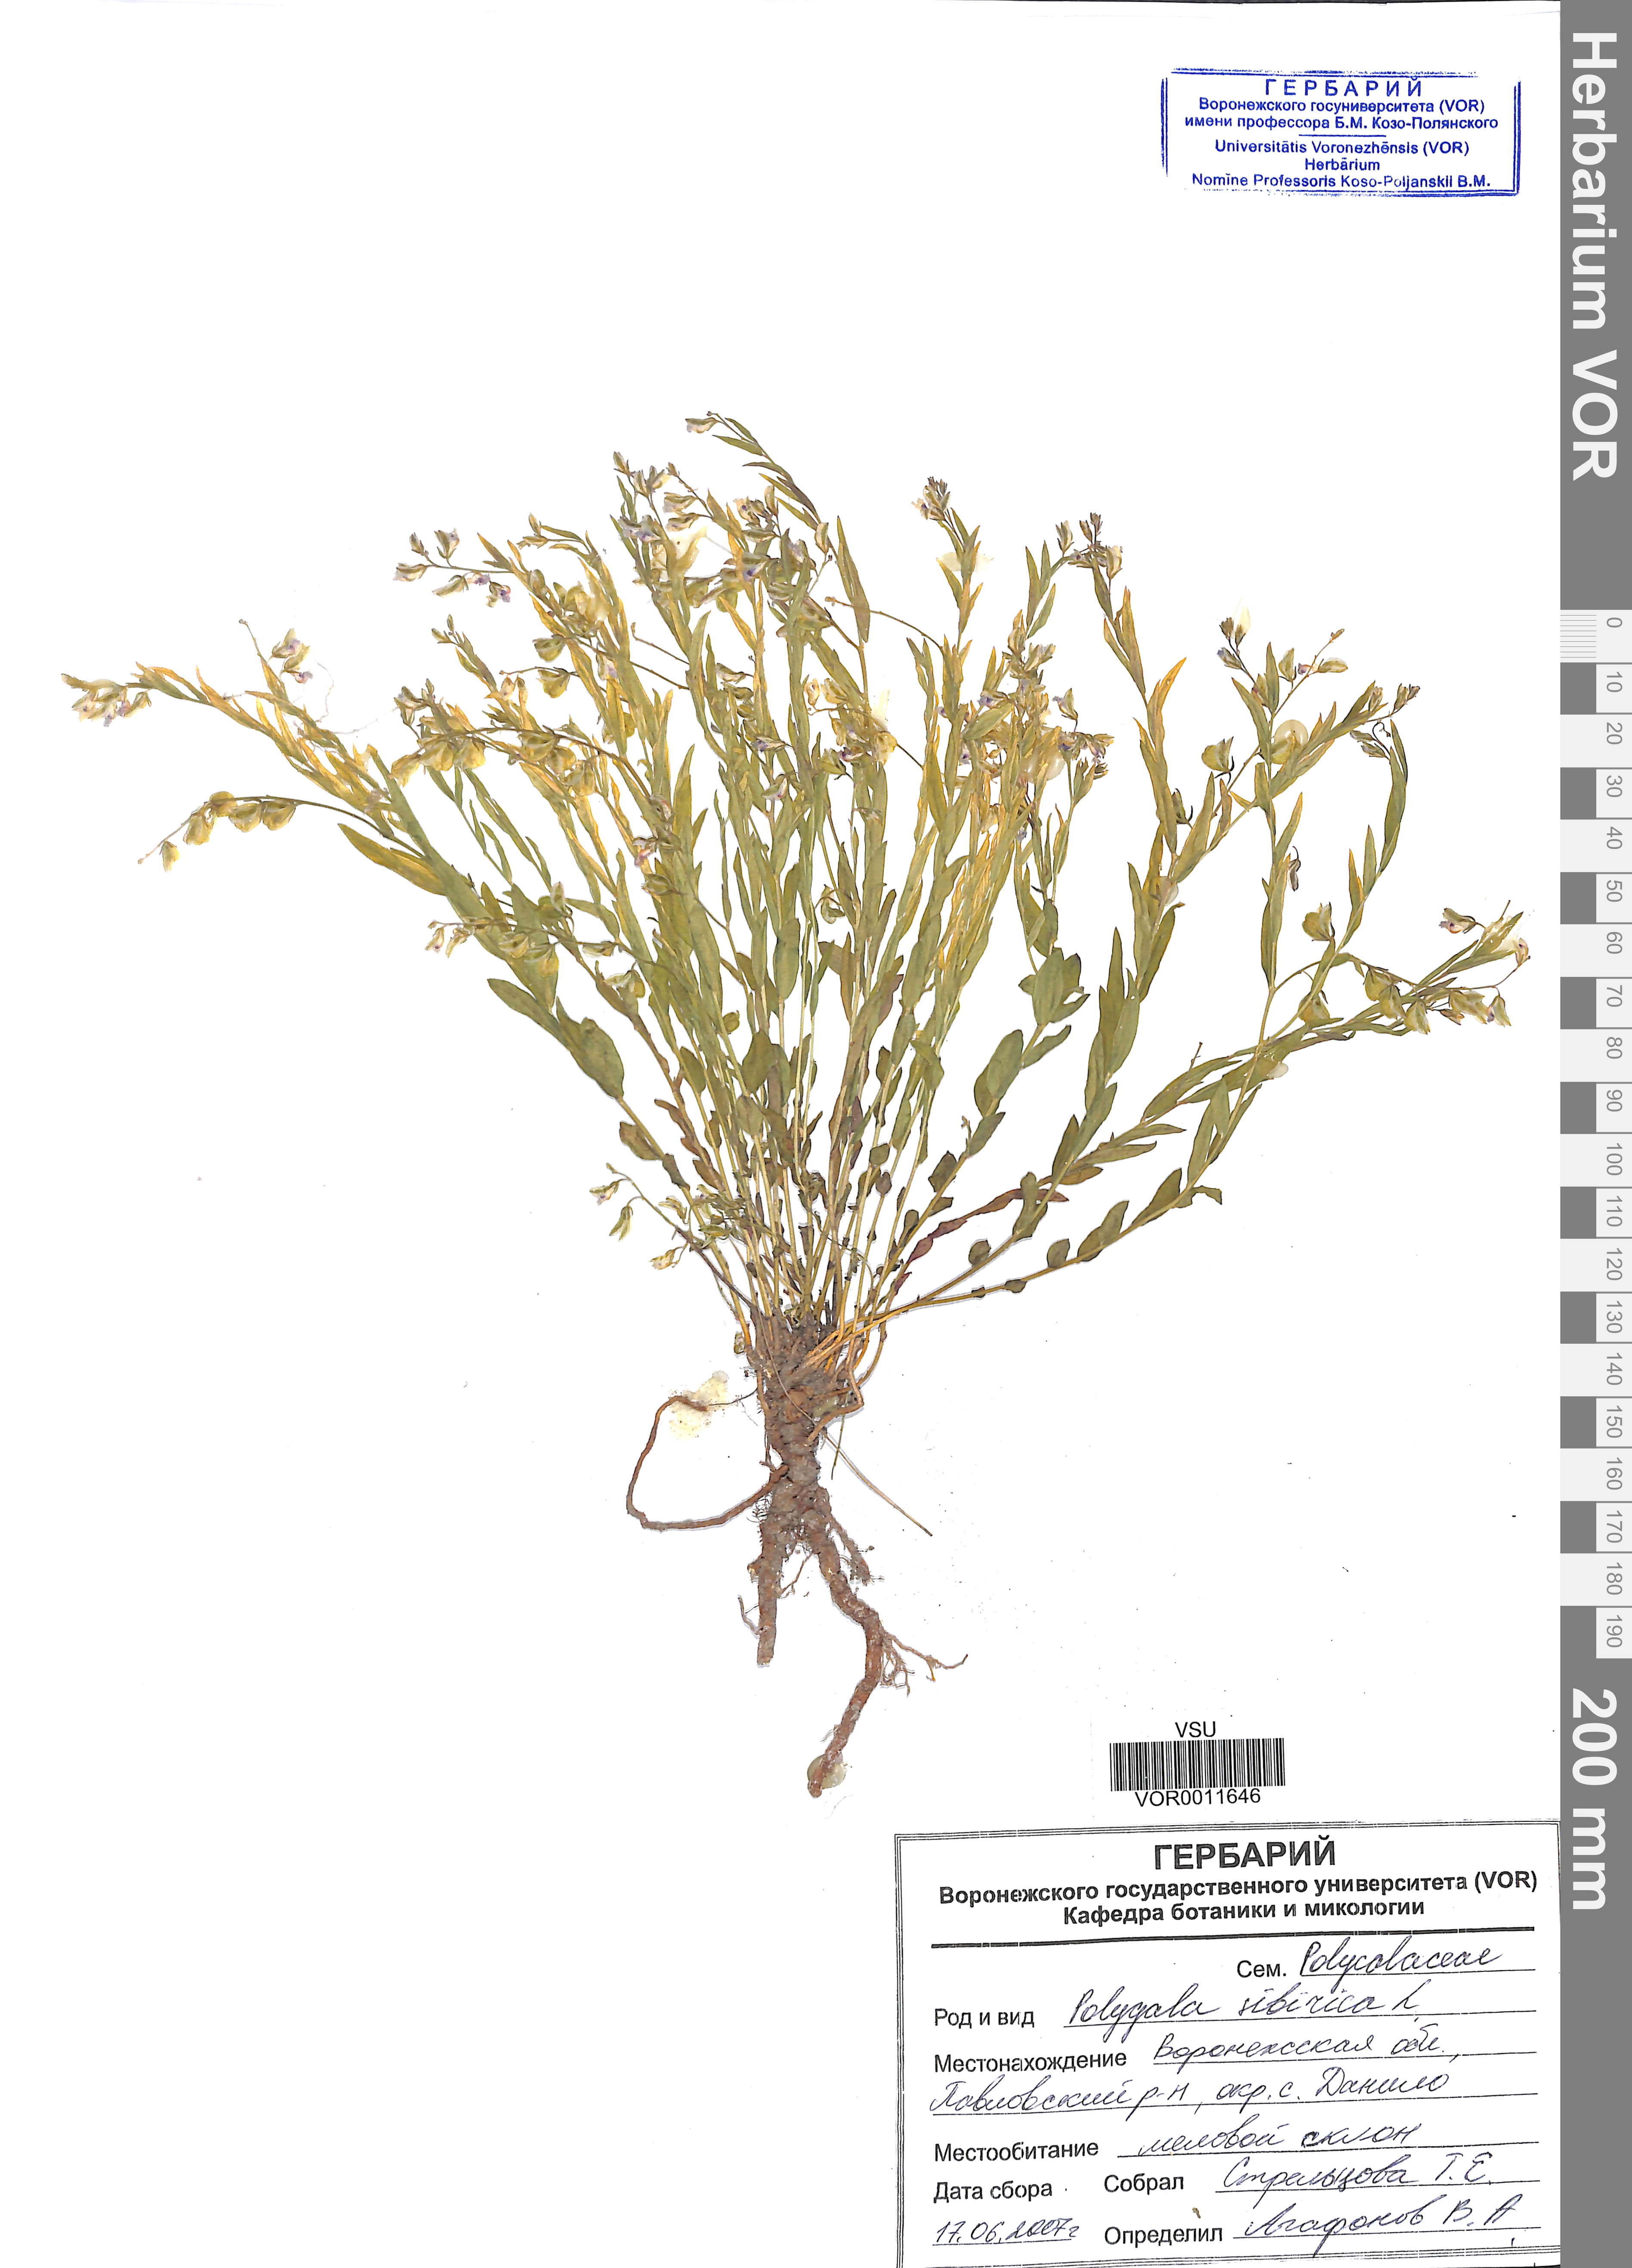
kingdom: Plantae
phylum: Tracheophyta
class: Magnoliopsida
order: Fabales
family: Polygalaceae
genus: Polygala
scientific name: Polygala sibirica
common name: Siberian polygala
